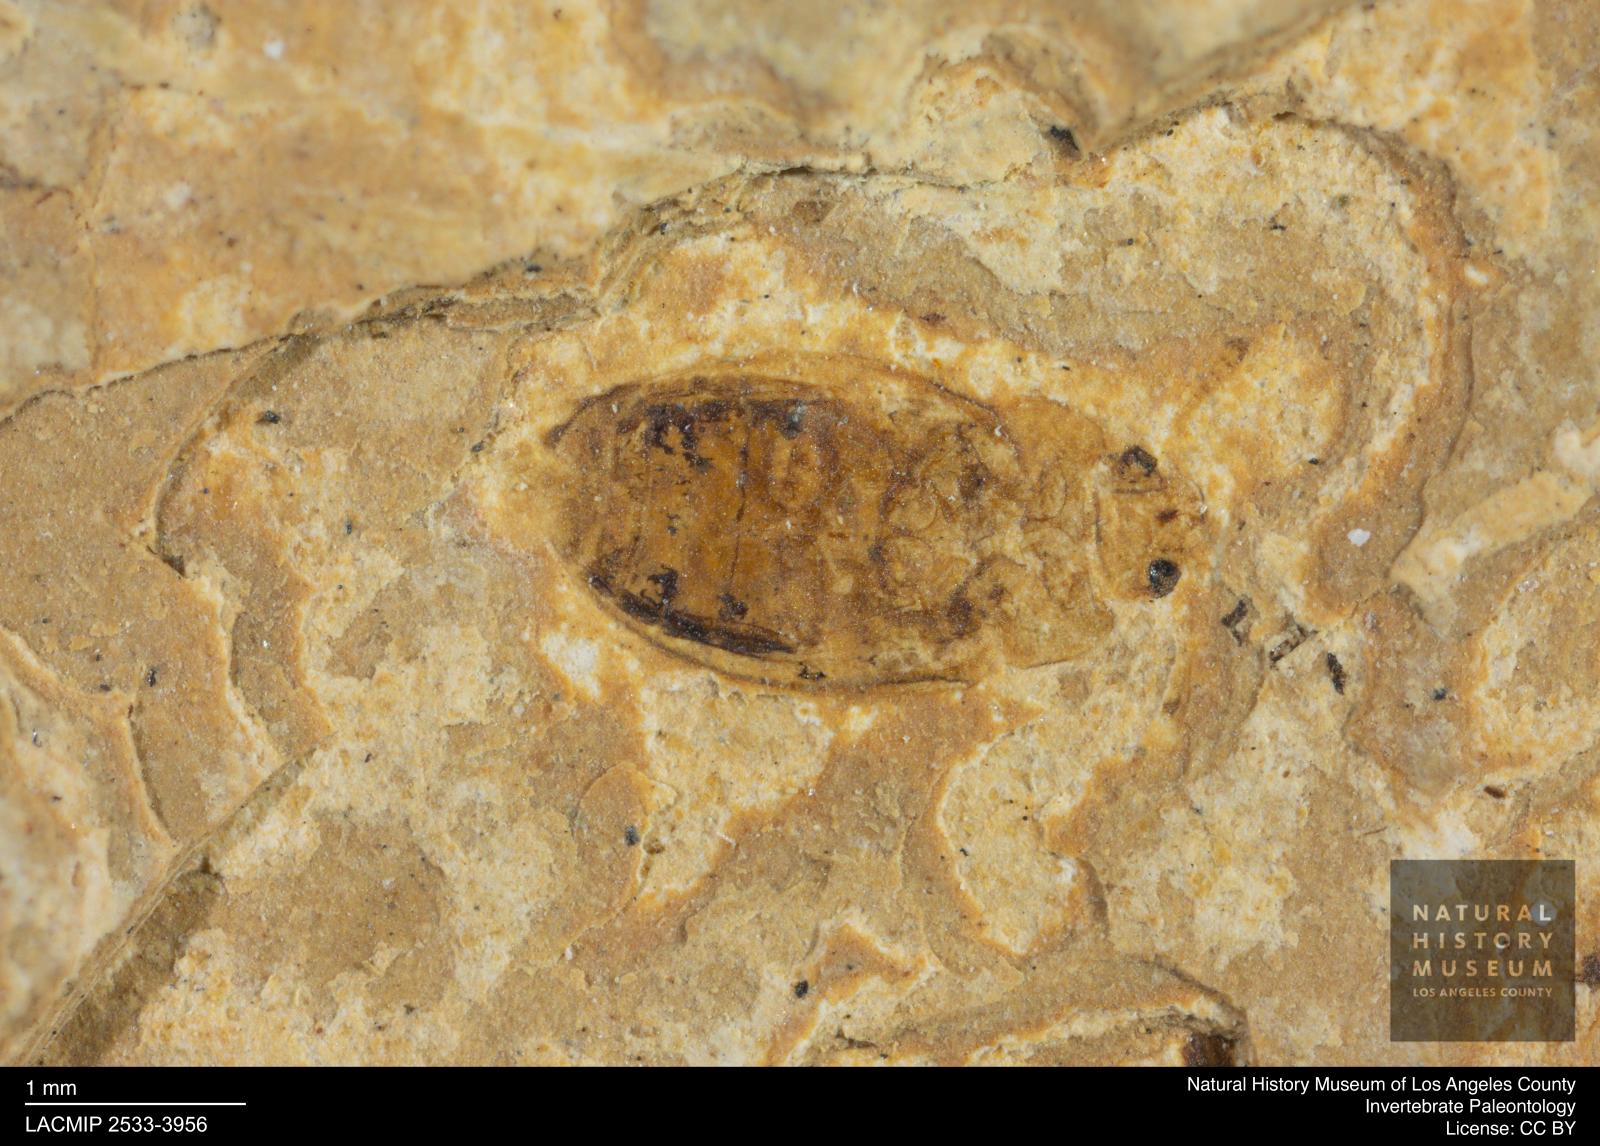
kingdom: Animalia
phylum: Arthropoda
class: Insecta
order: Coleoptera
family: Mycetophagidae
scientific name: Mycetophagidae
